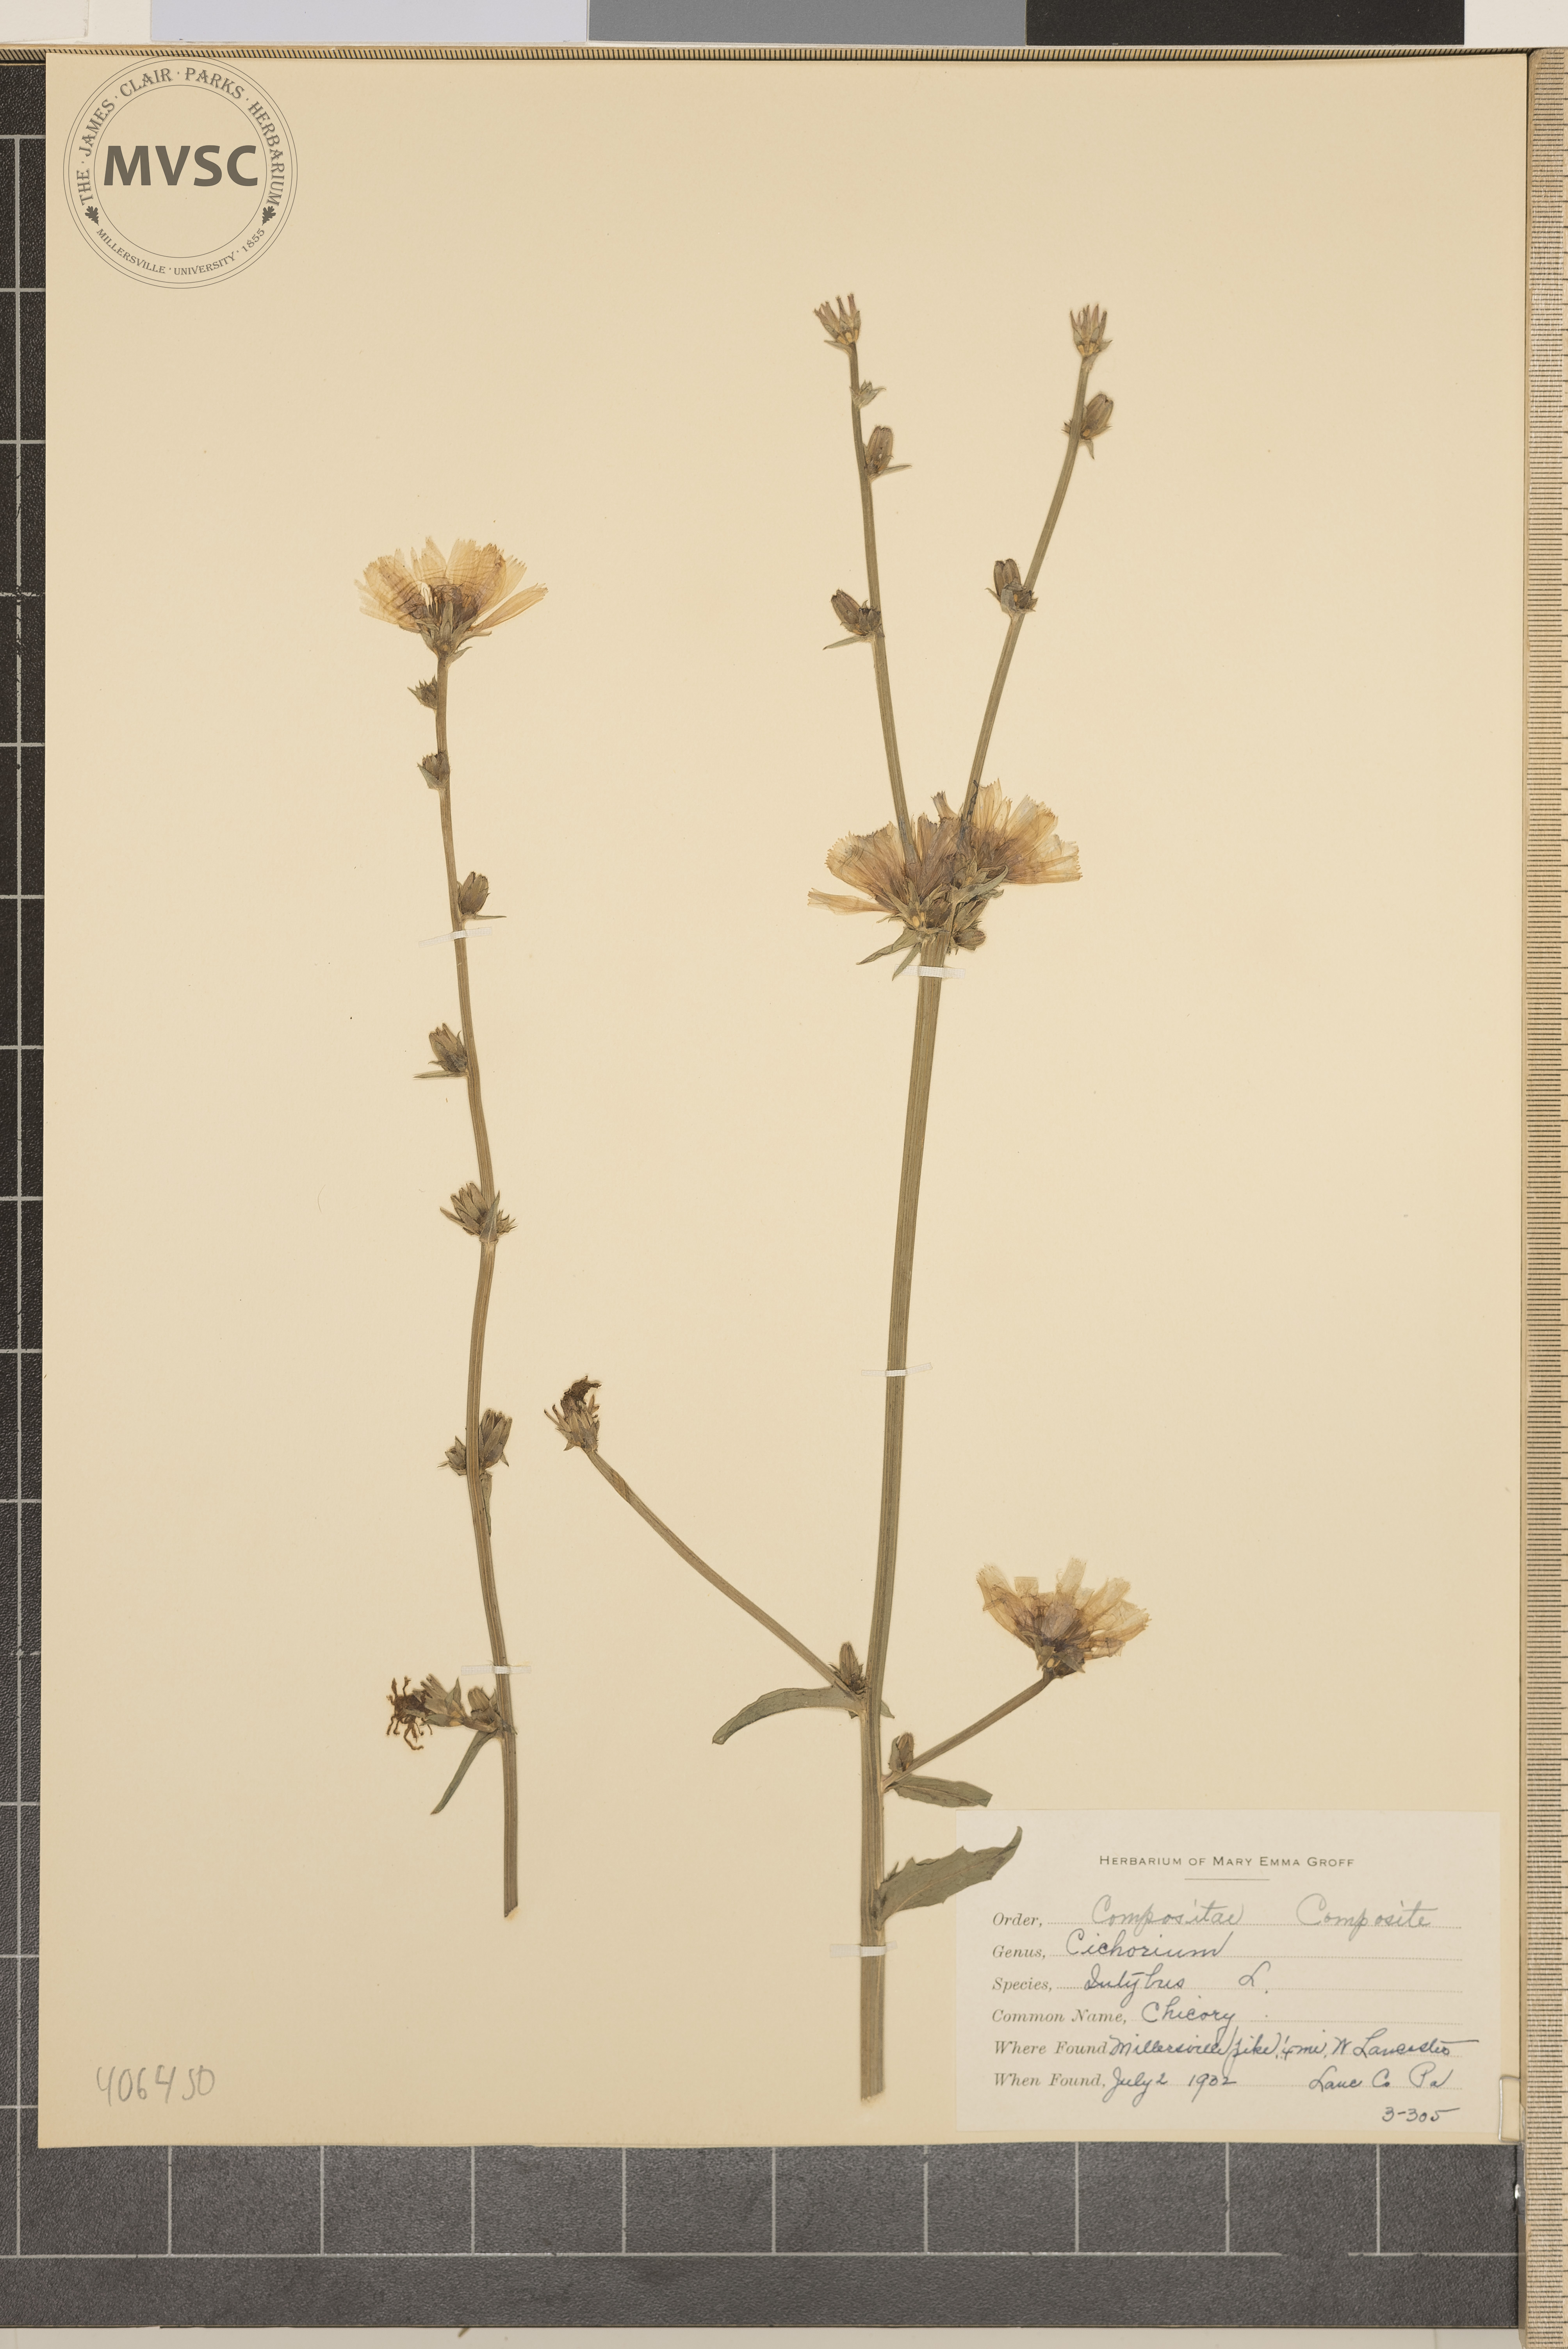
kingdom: Plantae
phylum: Tracheophyta
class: Magnoliopsida
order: Asterales
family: Asteraceae
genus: Cichorium
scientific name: Cichorium intybus
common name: Chicory
